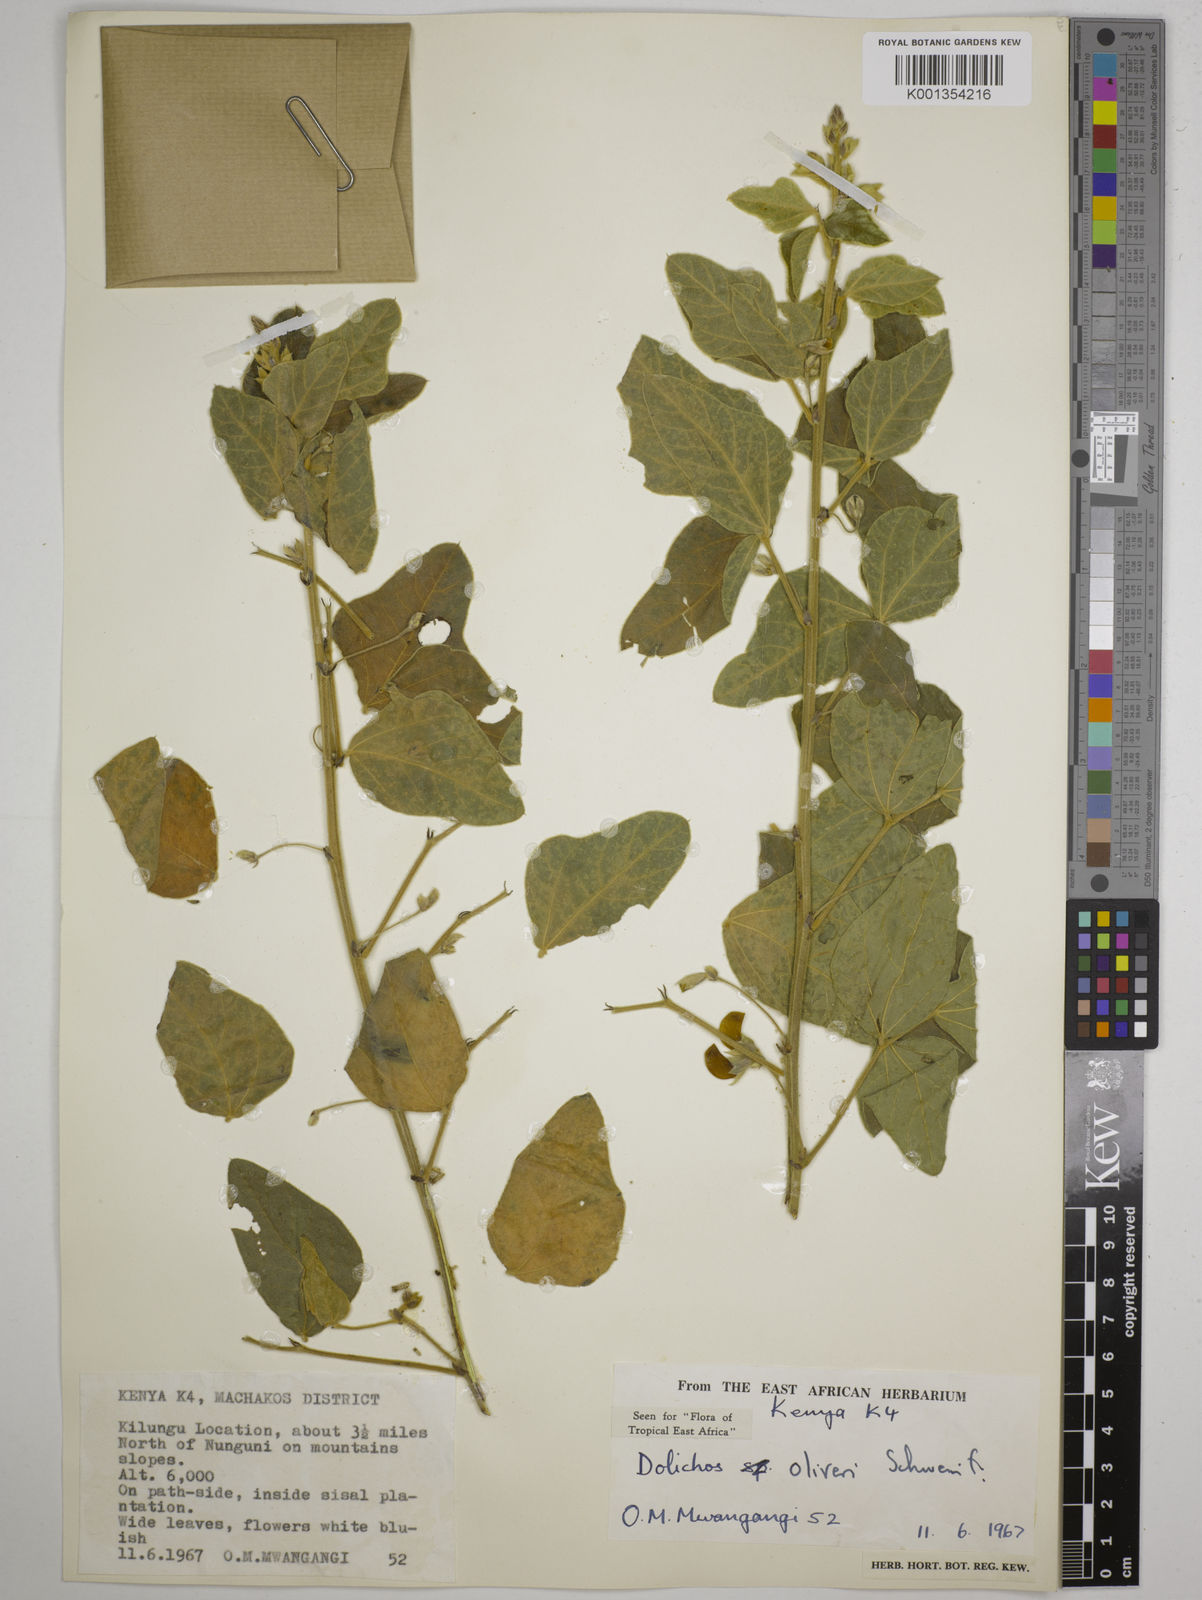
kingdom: Plantae
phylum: Tracheophyta
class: Magnoliopsida
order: Fabales
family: Fabaceae
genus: Dolichos
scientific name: Dolichos oliveri
